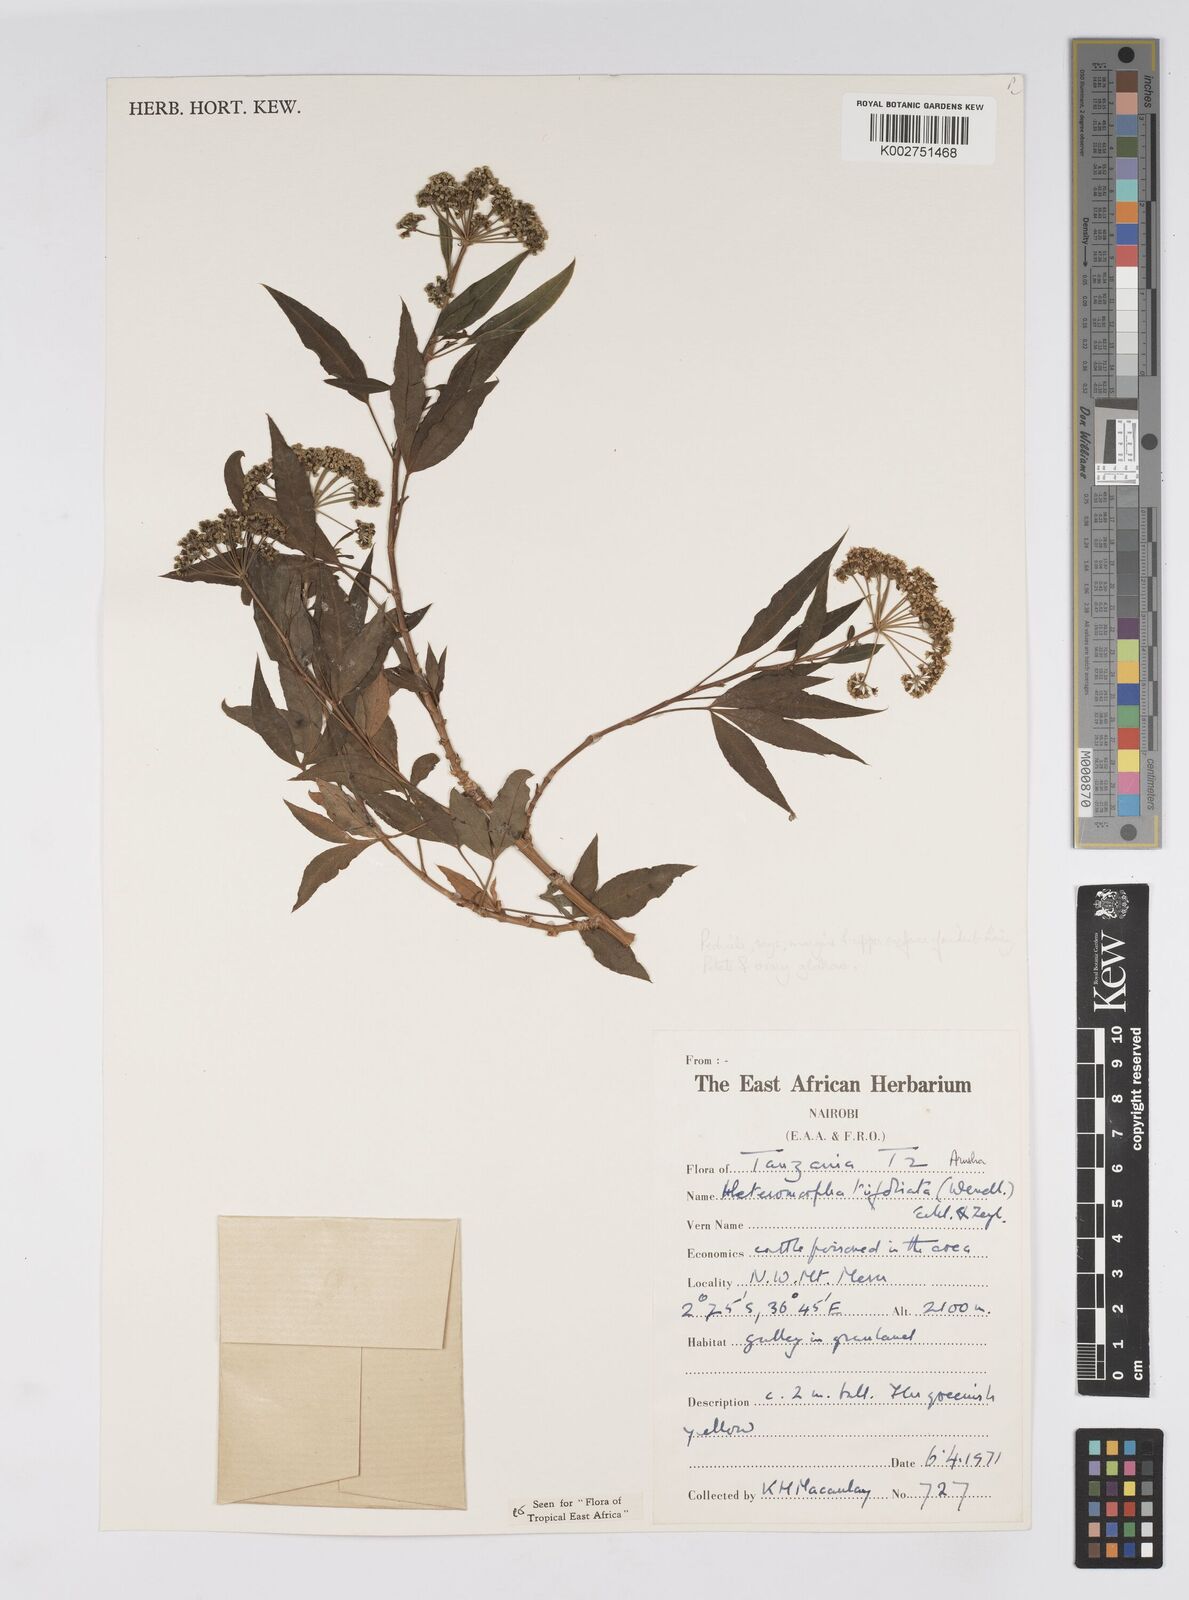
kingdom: Plantae
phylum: Tracheophyta
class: Magnoliopsida
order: Apiales
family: Apiaceae
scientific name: Apiaceae
